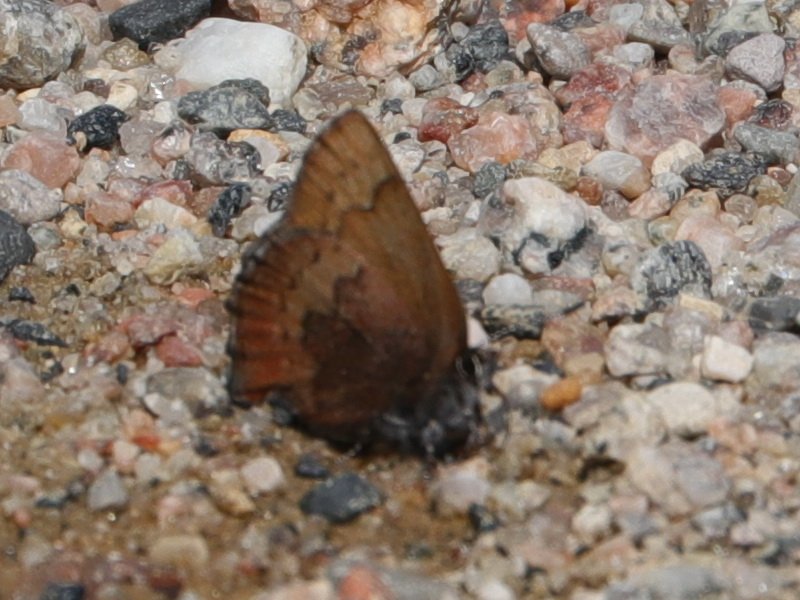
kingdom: Animalia
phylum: Arthropoda
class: Insecta
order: Lepidoptera
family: Lycaenidae
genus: Incisalia
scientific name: Incisalia irioides
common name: Brown Elfin
